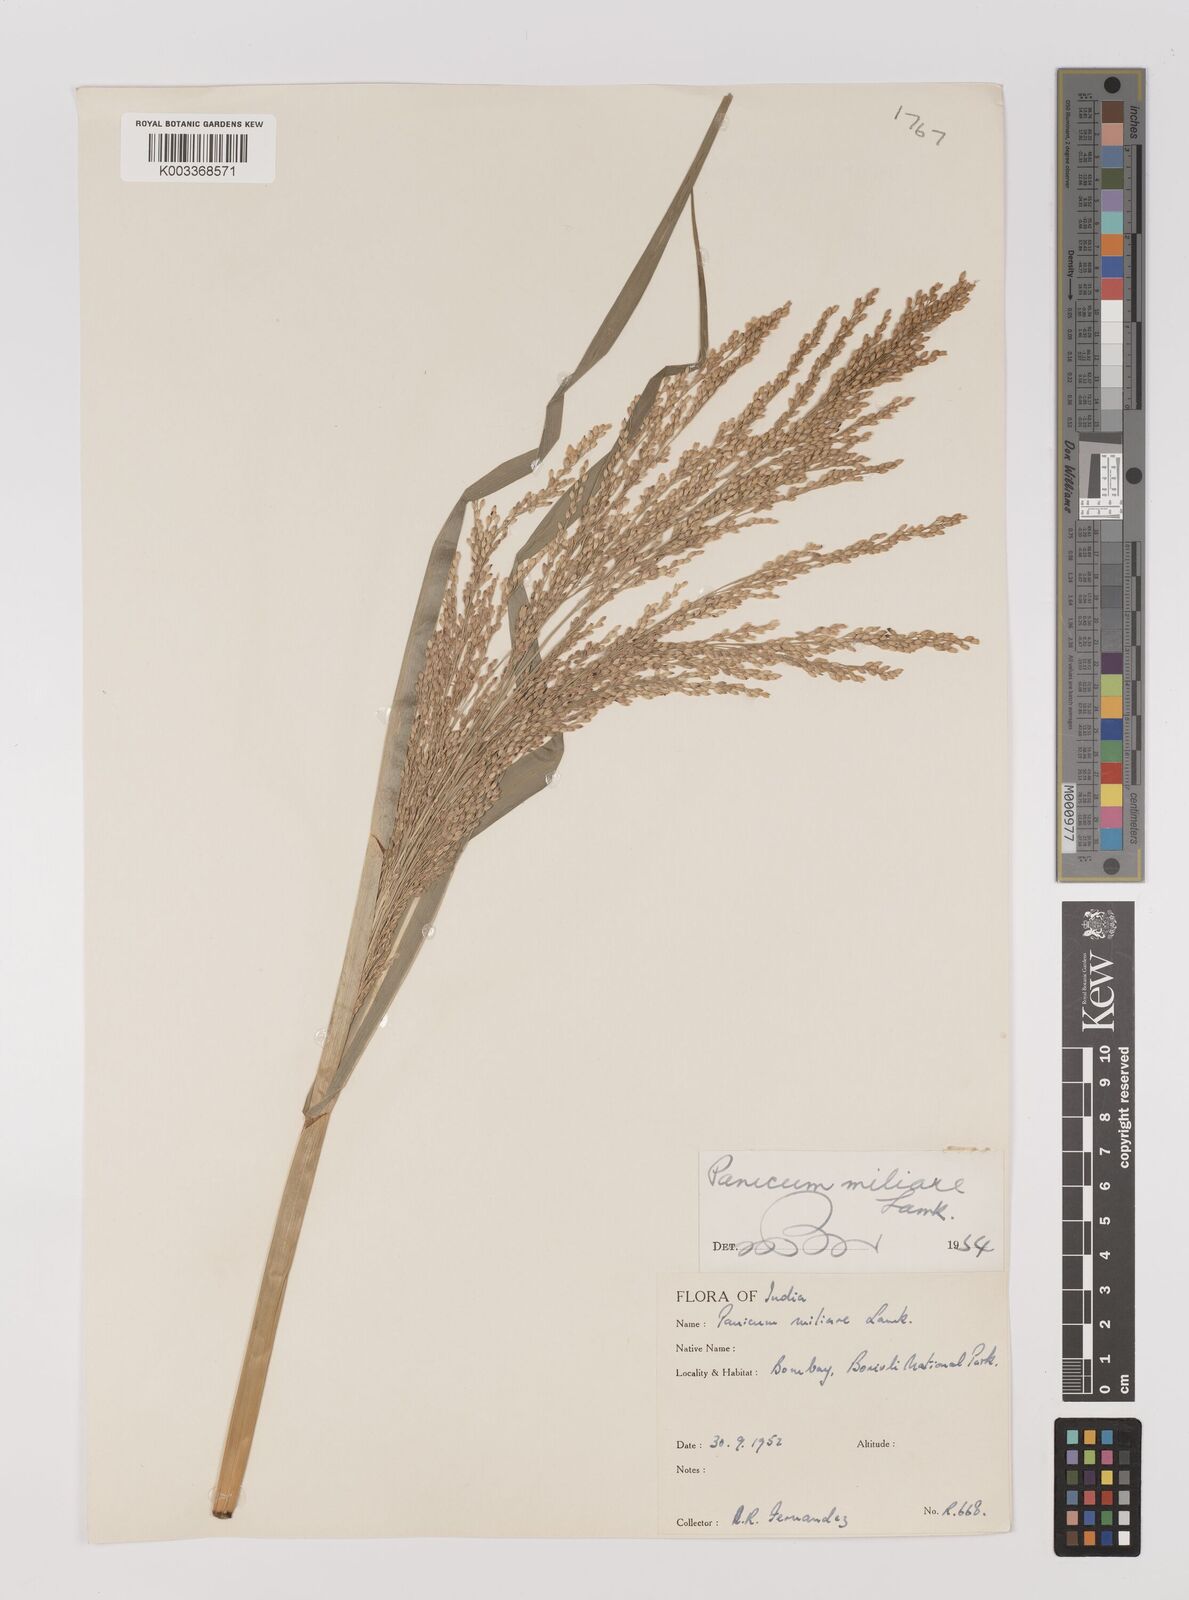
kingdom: Plantae
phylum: Tracheophyta
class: Liliopsida
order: Poales
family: Poaceae
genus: Panicum
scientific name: Panicum sumatrense
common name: Little millet
